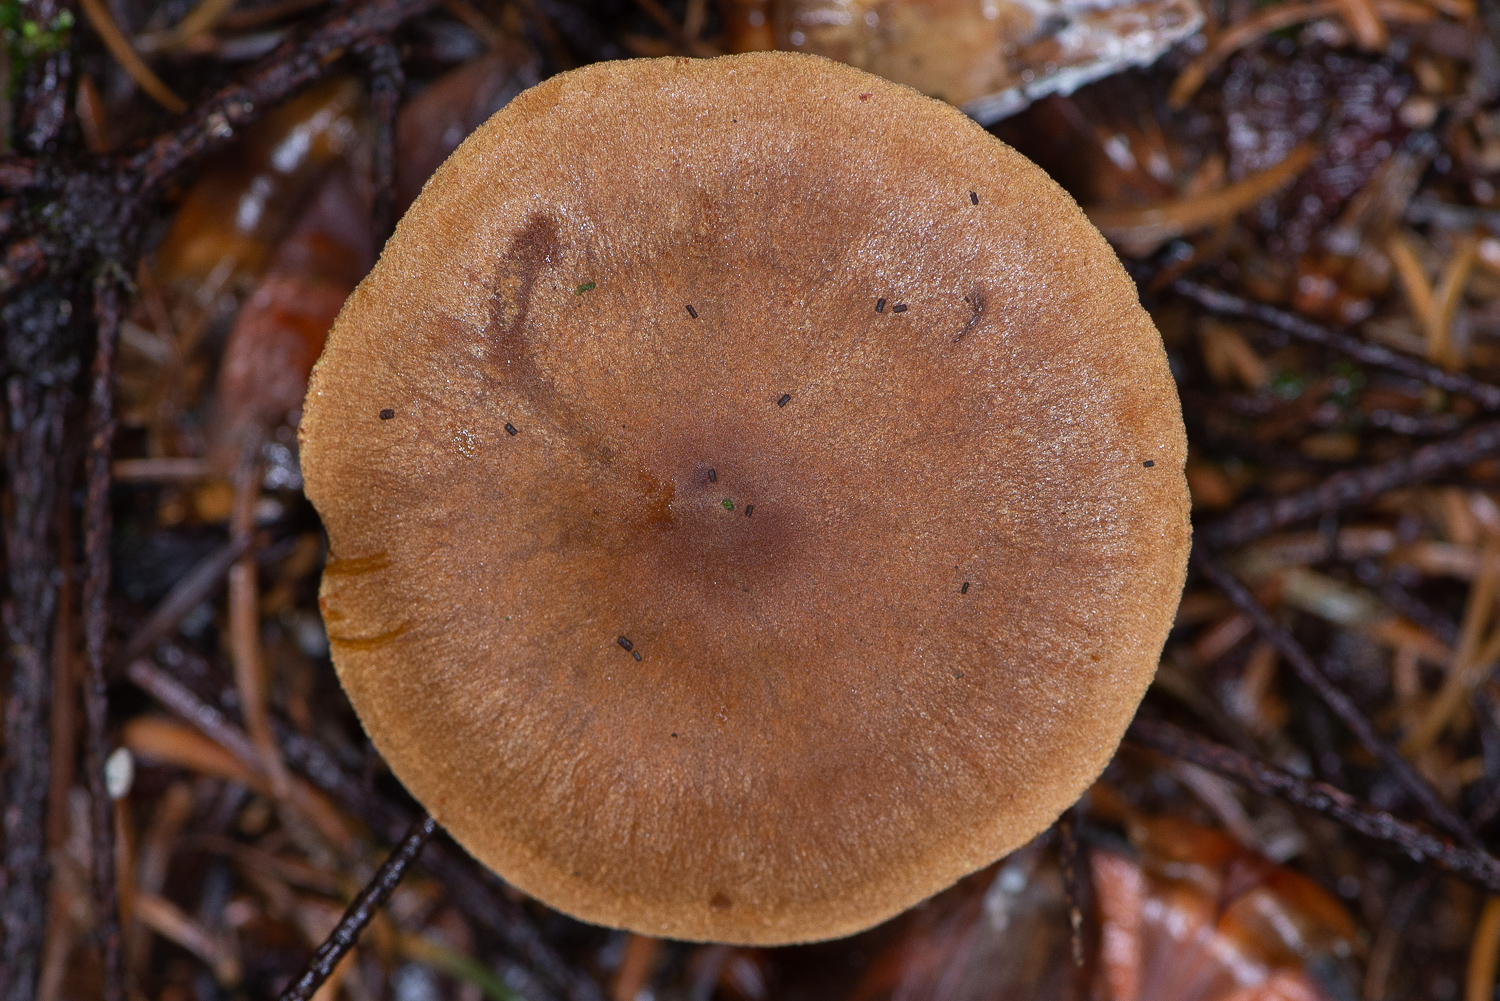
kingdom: Fungi
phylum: Basidiomycota
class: Agaricomycetes
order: Agaricales
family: Cortinariaceae
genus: Cortinarius
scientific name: Cortinarius malicorius
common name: grønkødet slørhat
